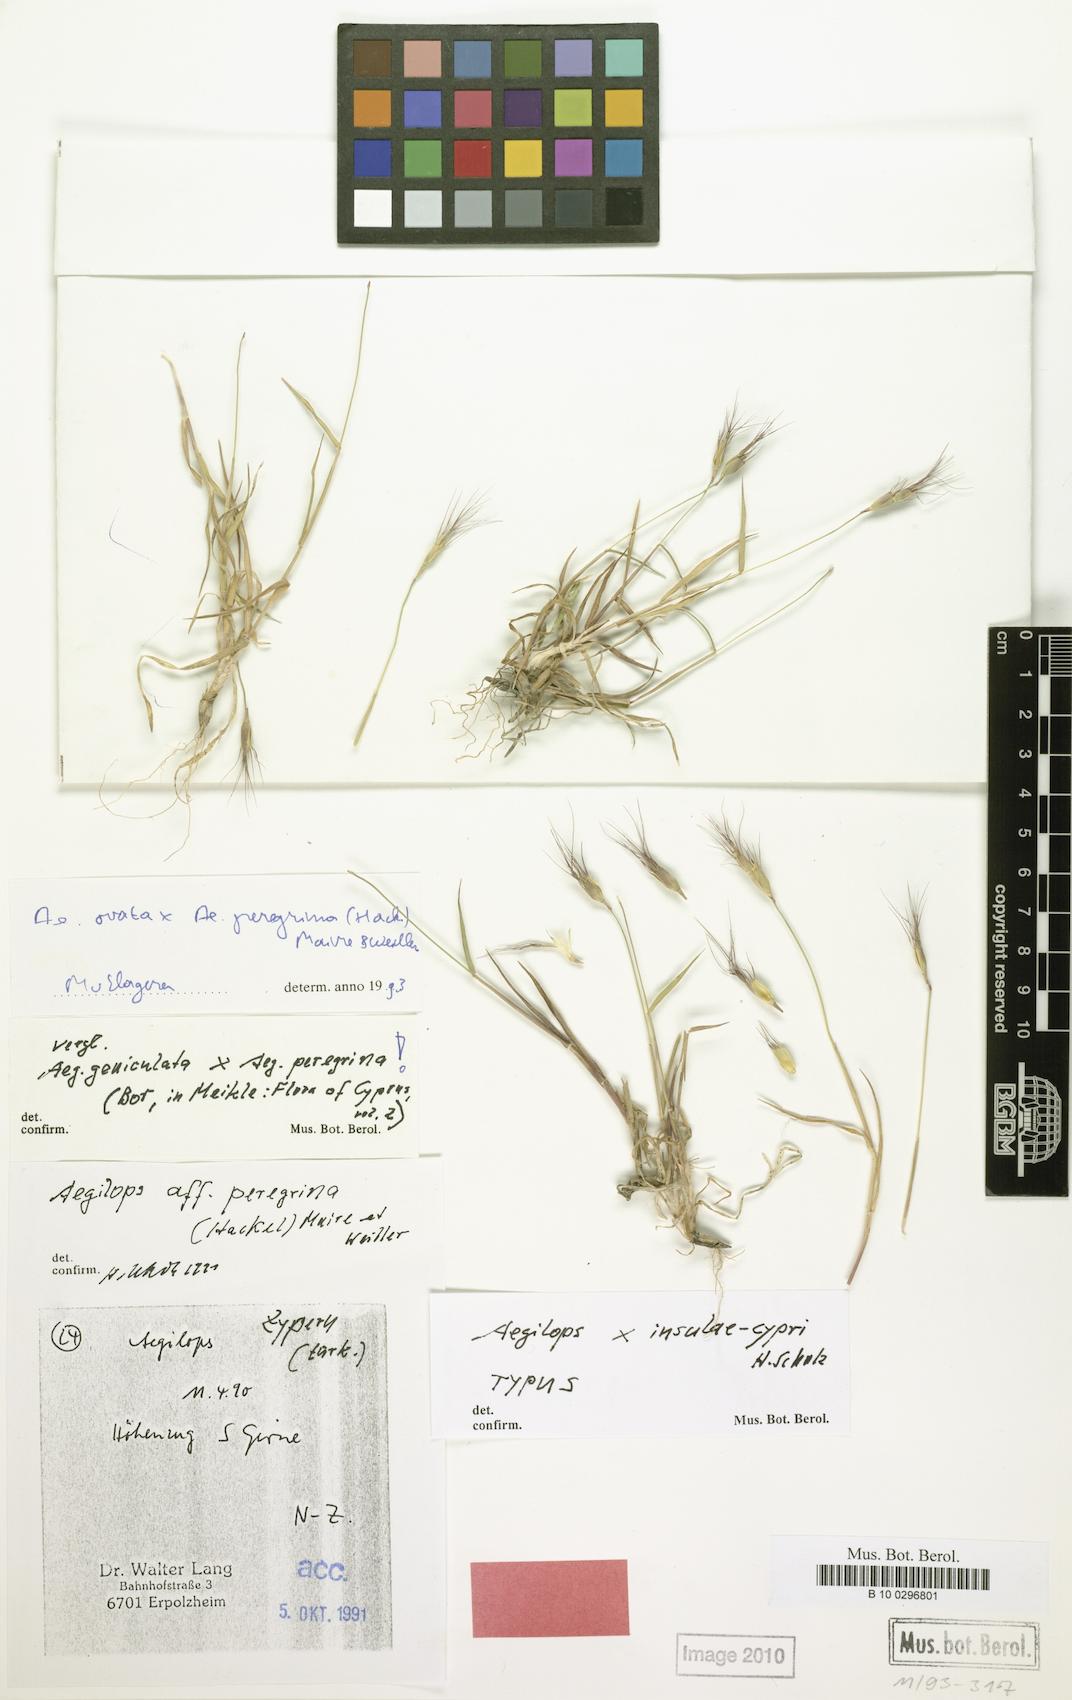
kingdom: Plantae
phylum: Tracheophyta
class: Liliopsida
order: Poales
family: Poaceae
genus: Aegilops
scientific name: Aegilops insulae-cypri
